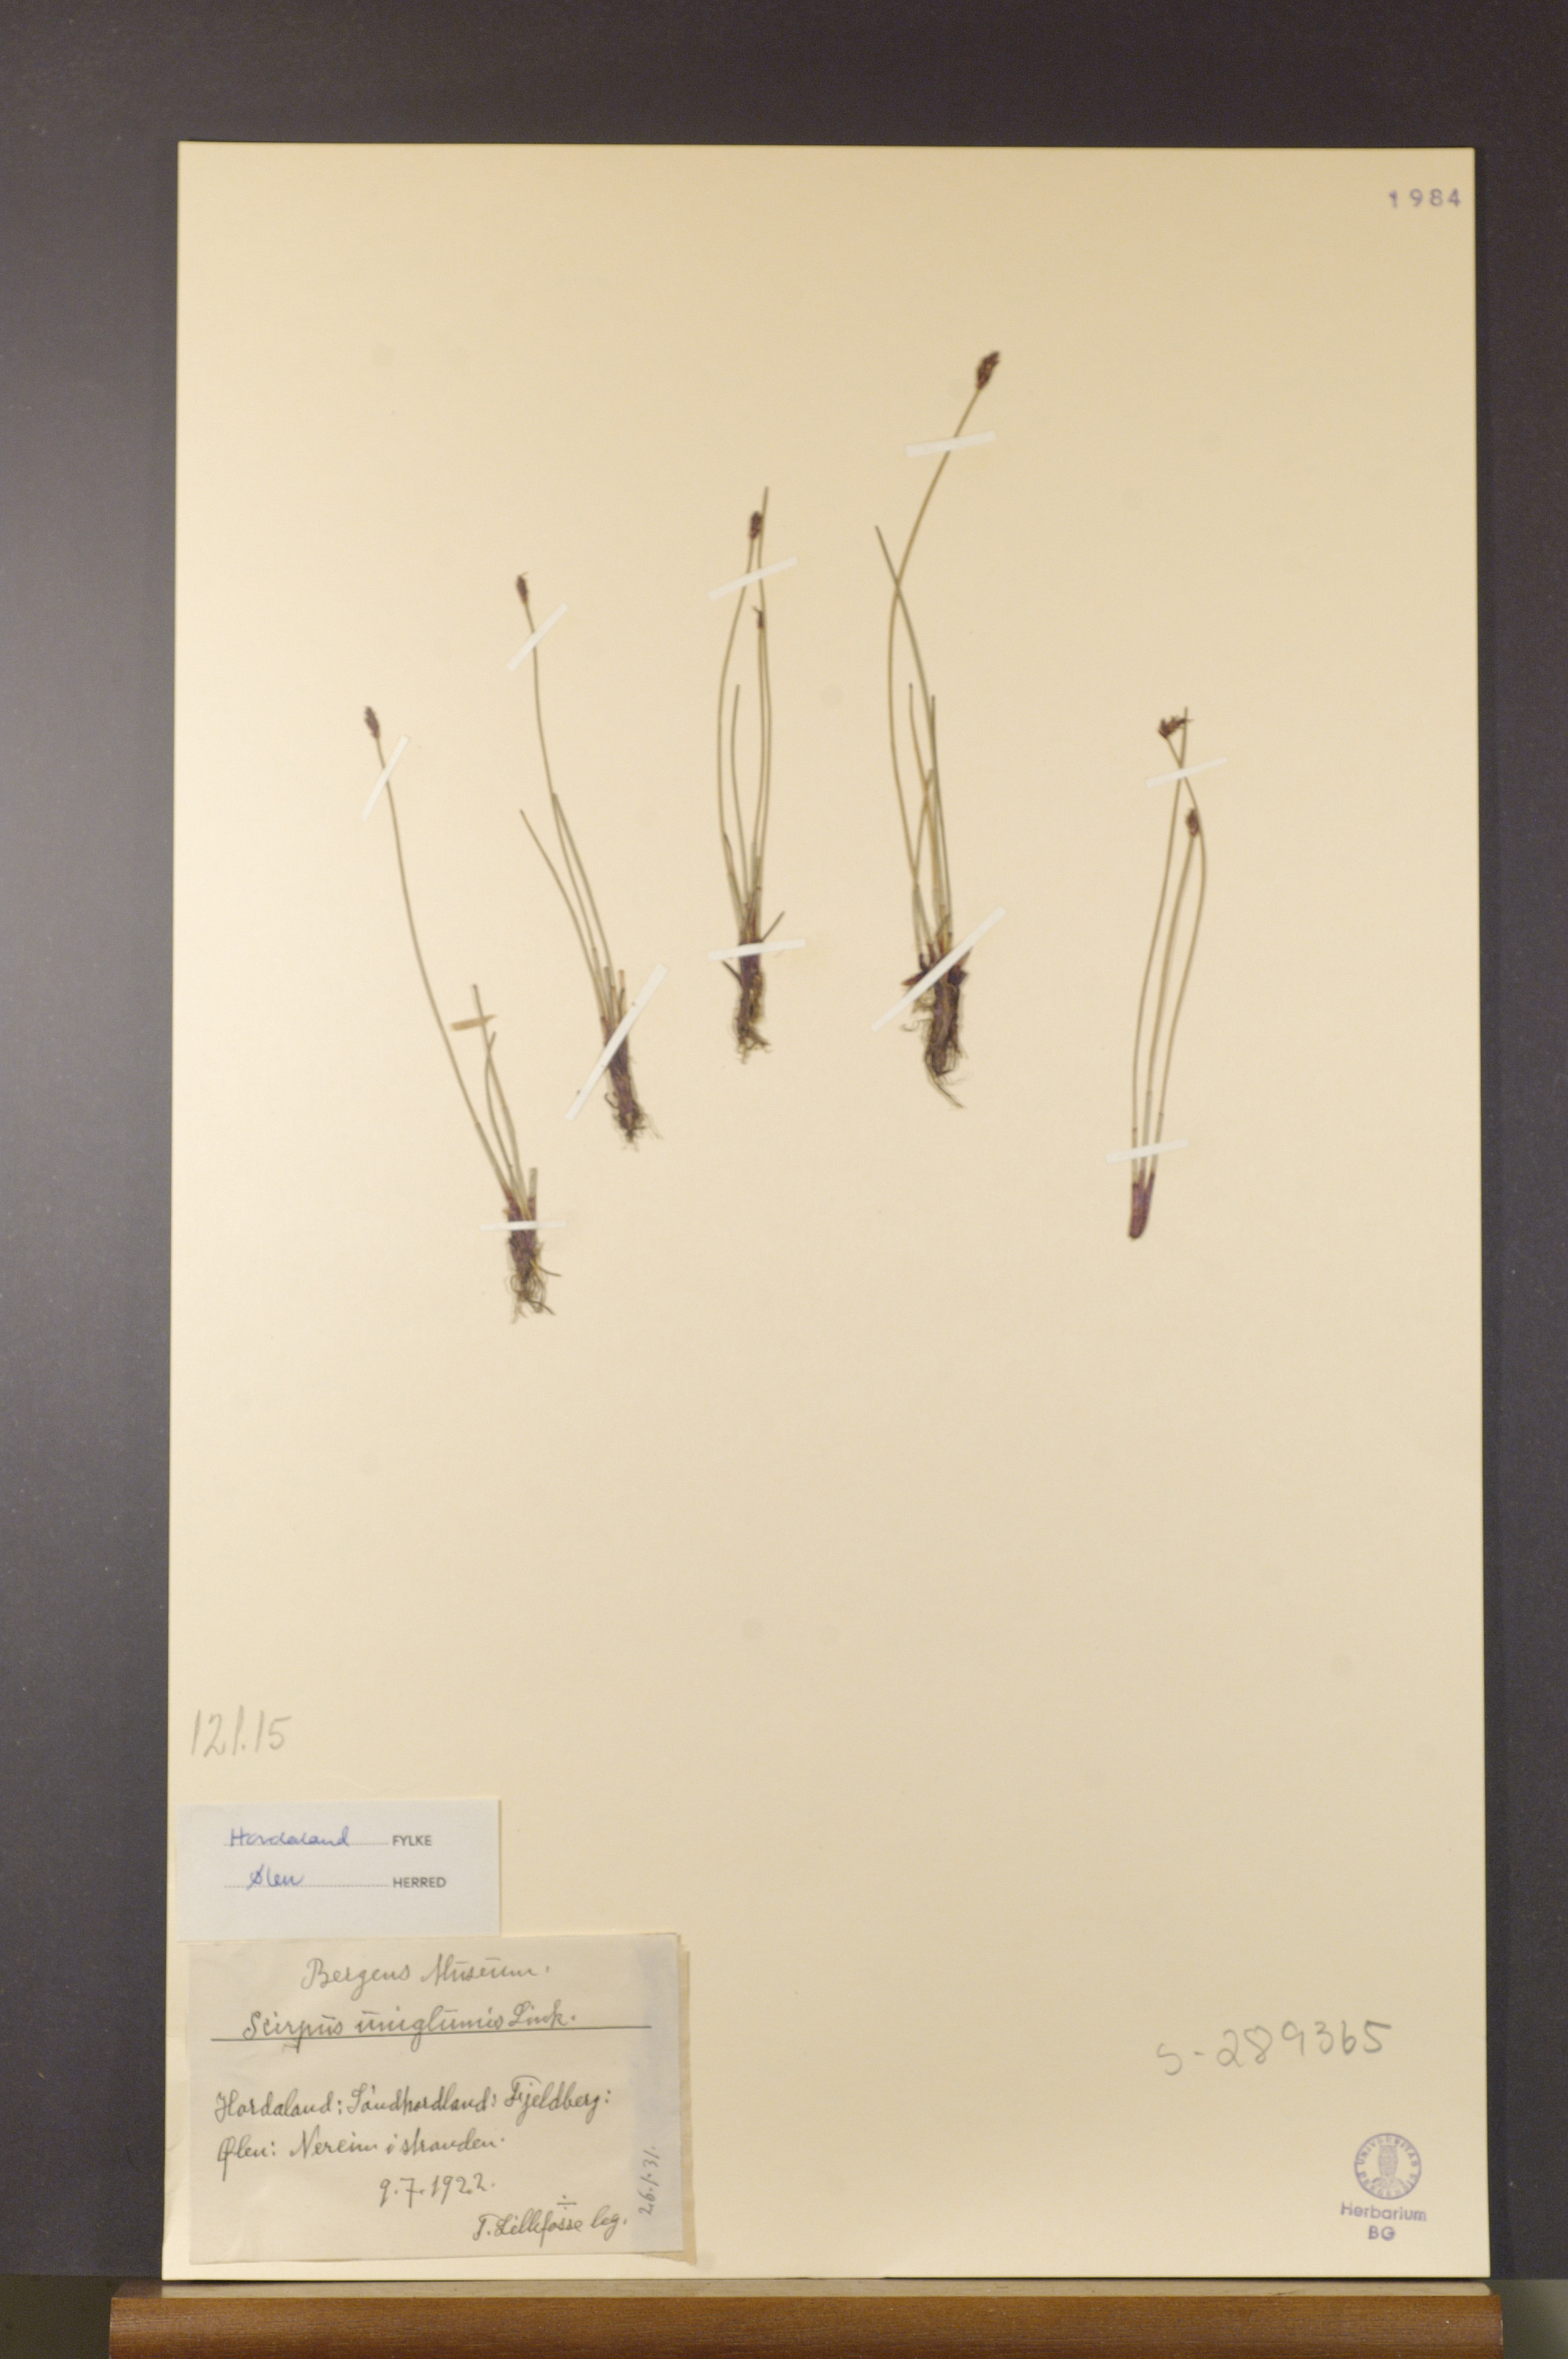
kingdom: Plantae
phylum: Tracheophyta
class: Liliopsida
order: Poales
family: Cyperaceae
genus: Eleocharis
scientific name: Eleocharis uniglumis
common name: Slender spike-rush
